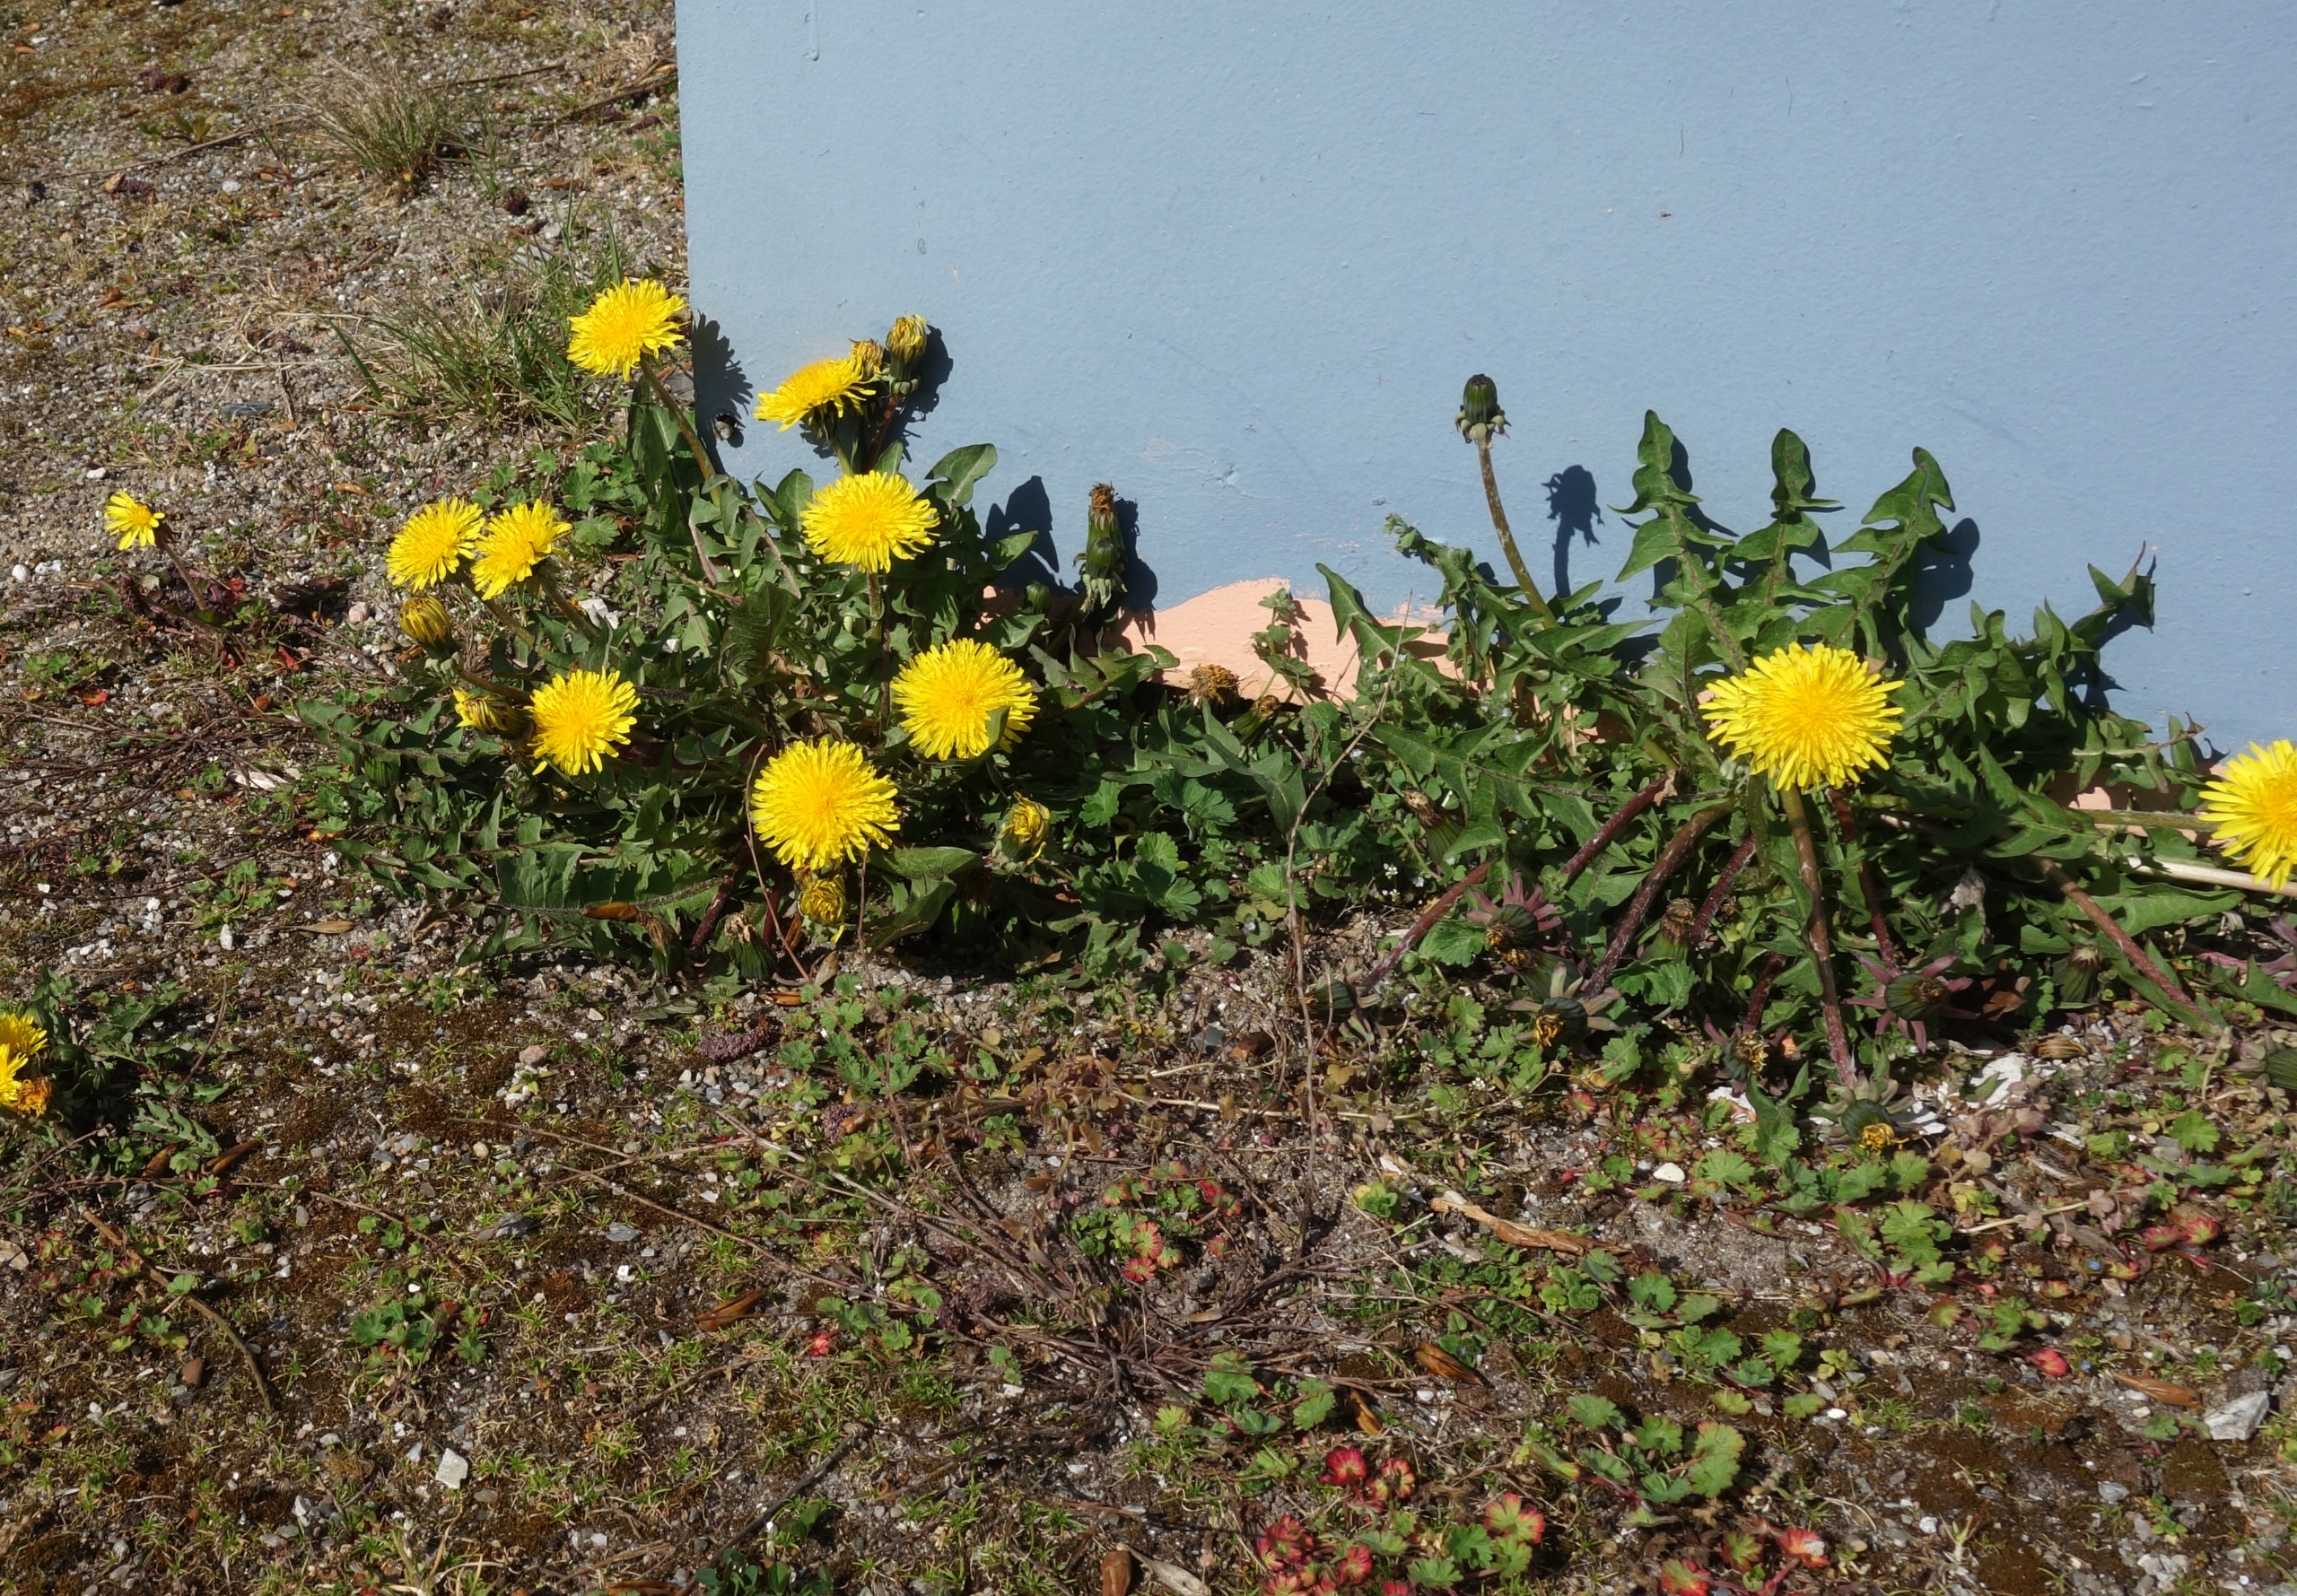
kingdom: Plantae
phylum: Tracheophyta
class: Magnoliopsida
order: Asterales
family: Asteraceae
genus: Taraxacum
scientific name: Taraxacum
